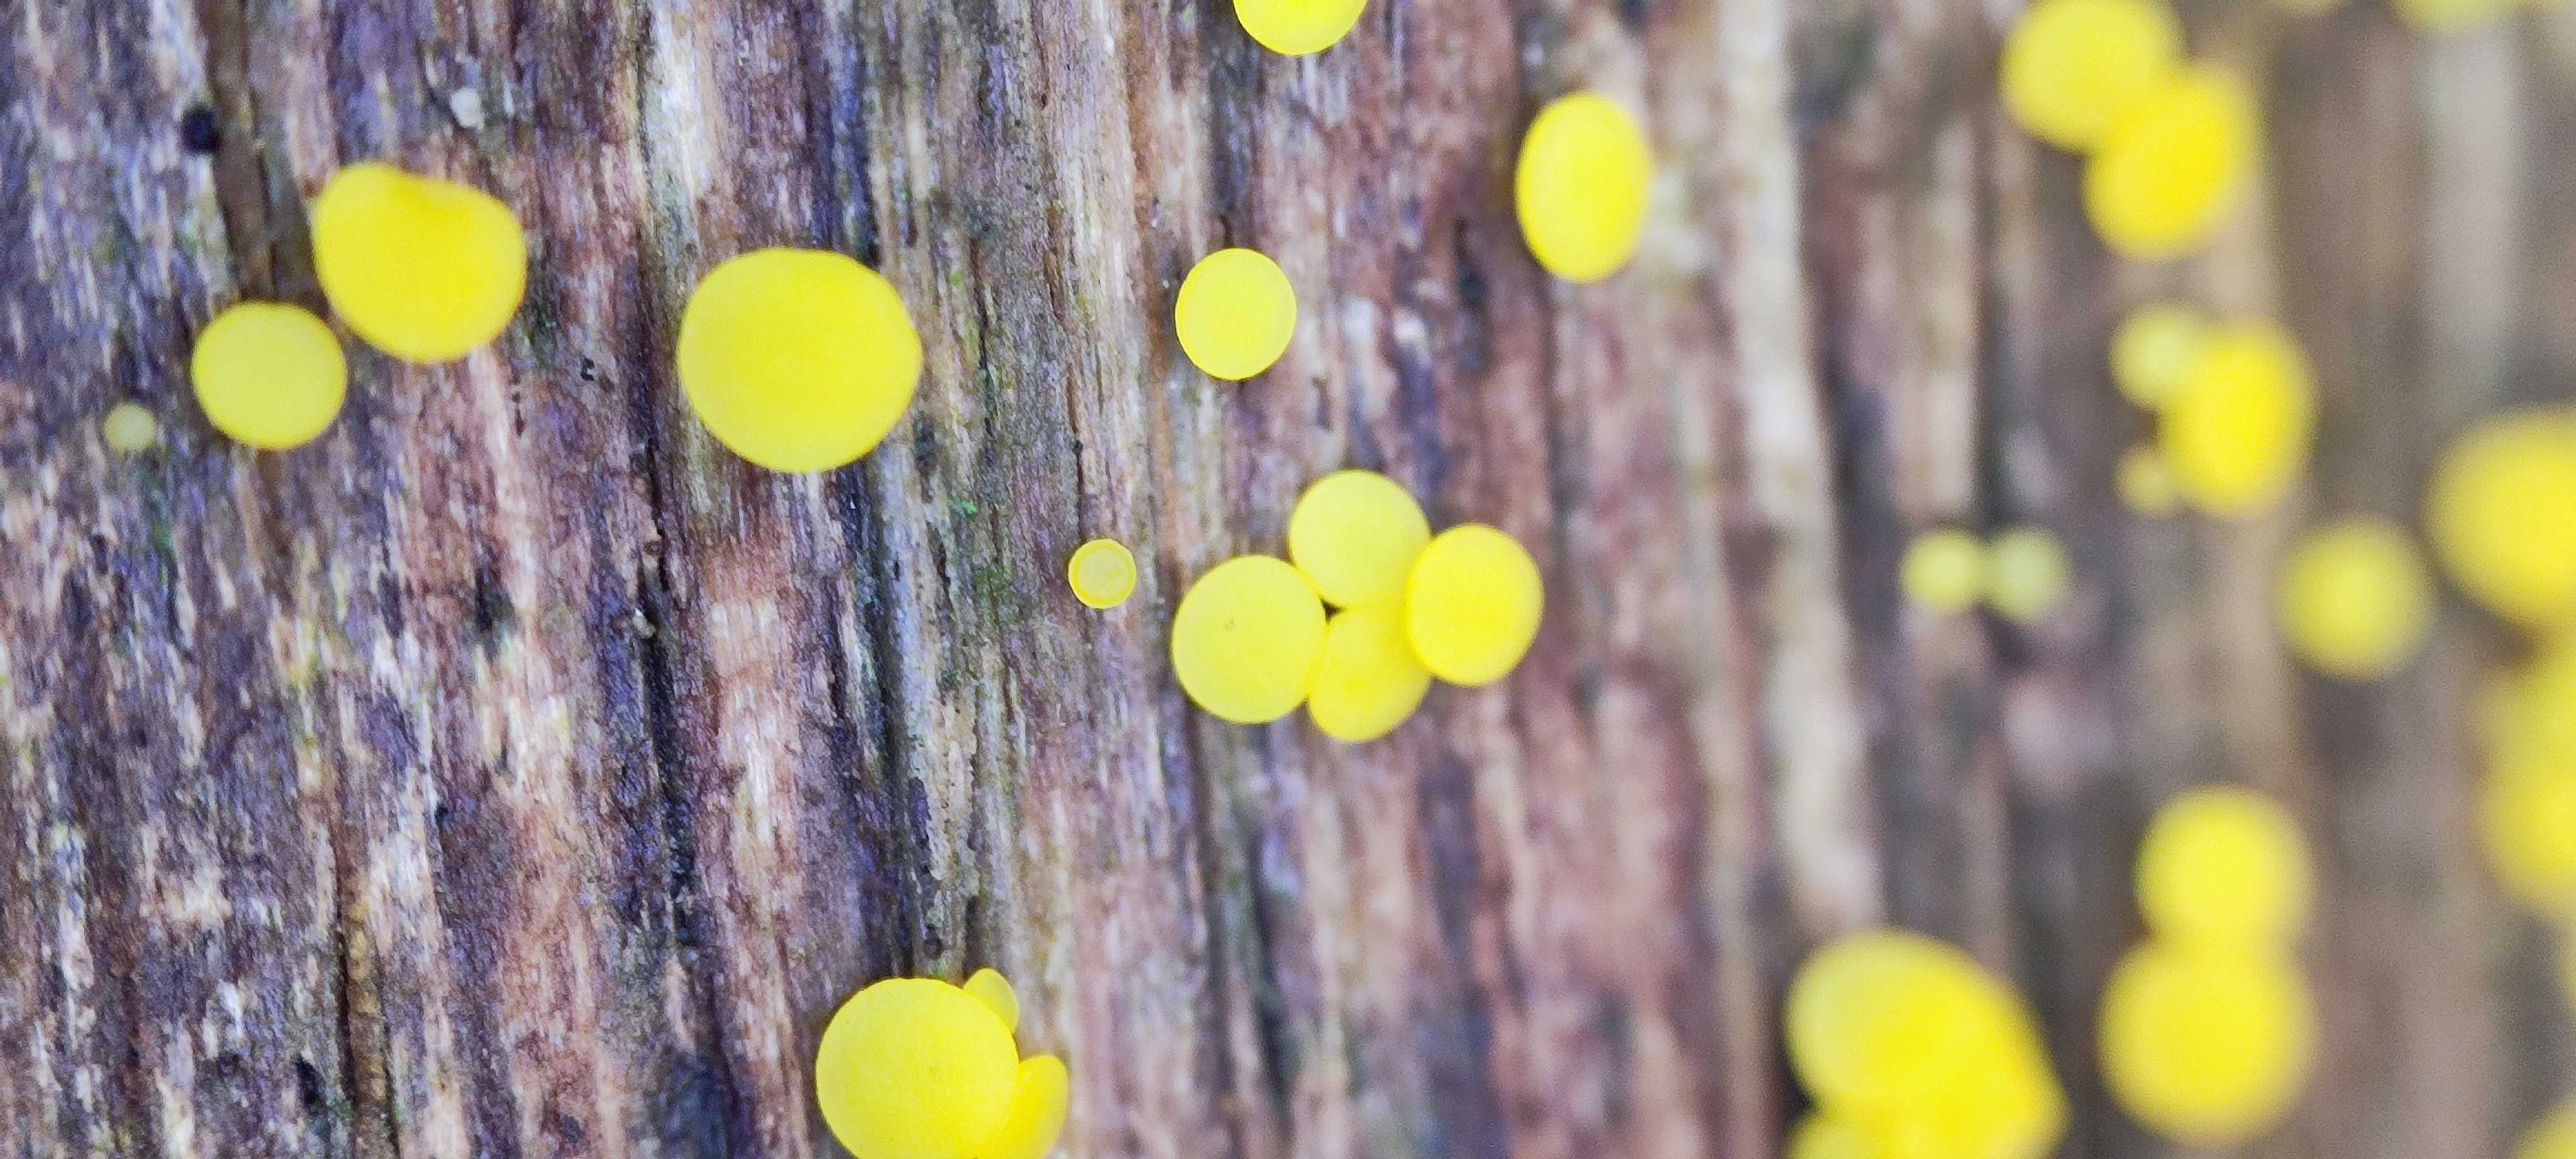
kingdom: Fungi
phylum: Ascomycota
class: Leotiomycetes
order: Helotiales
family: Pezizellaceae
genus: Calycina
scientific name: Calycina citrina
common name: almindelig gulskive
